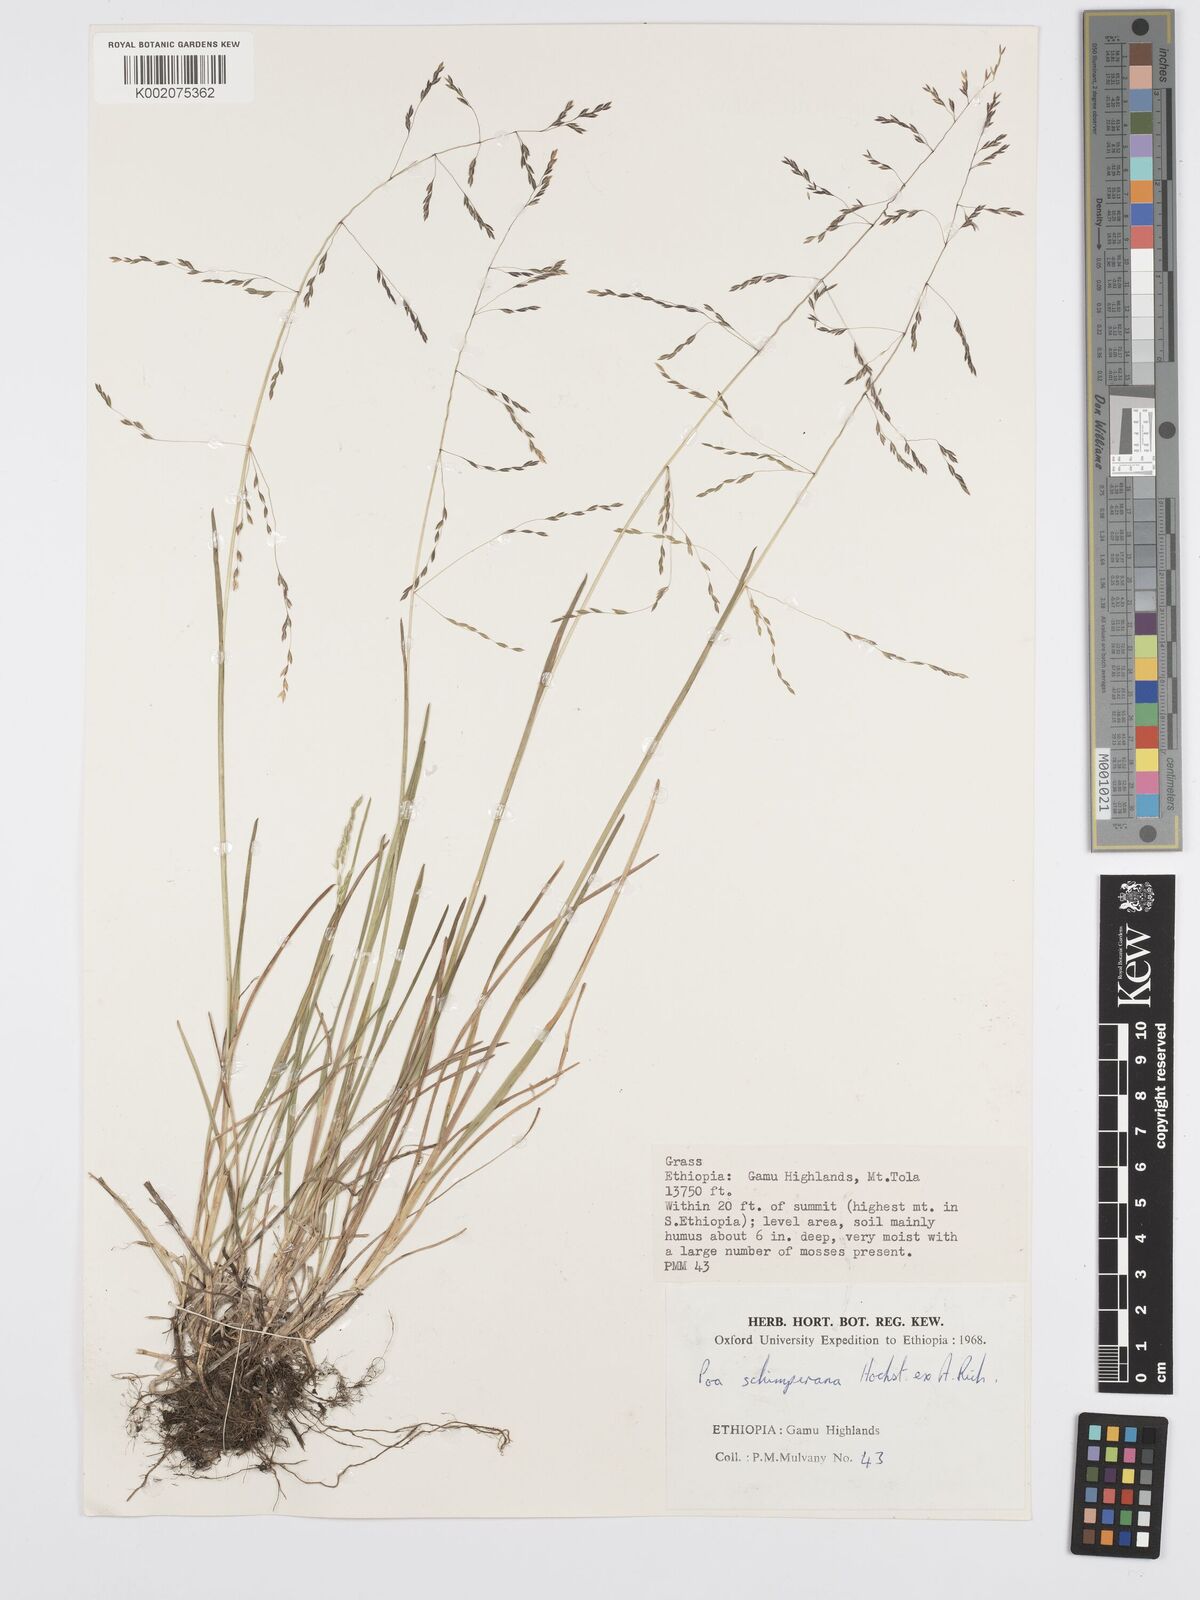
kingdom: Plantae
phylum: Tracheophyta
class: Liliopsida
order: Poales
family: Poaceae
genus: Poa
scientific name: Poa schimperiana
